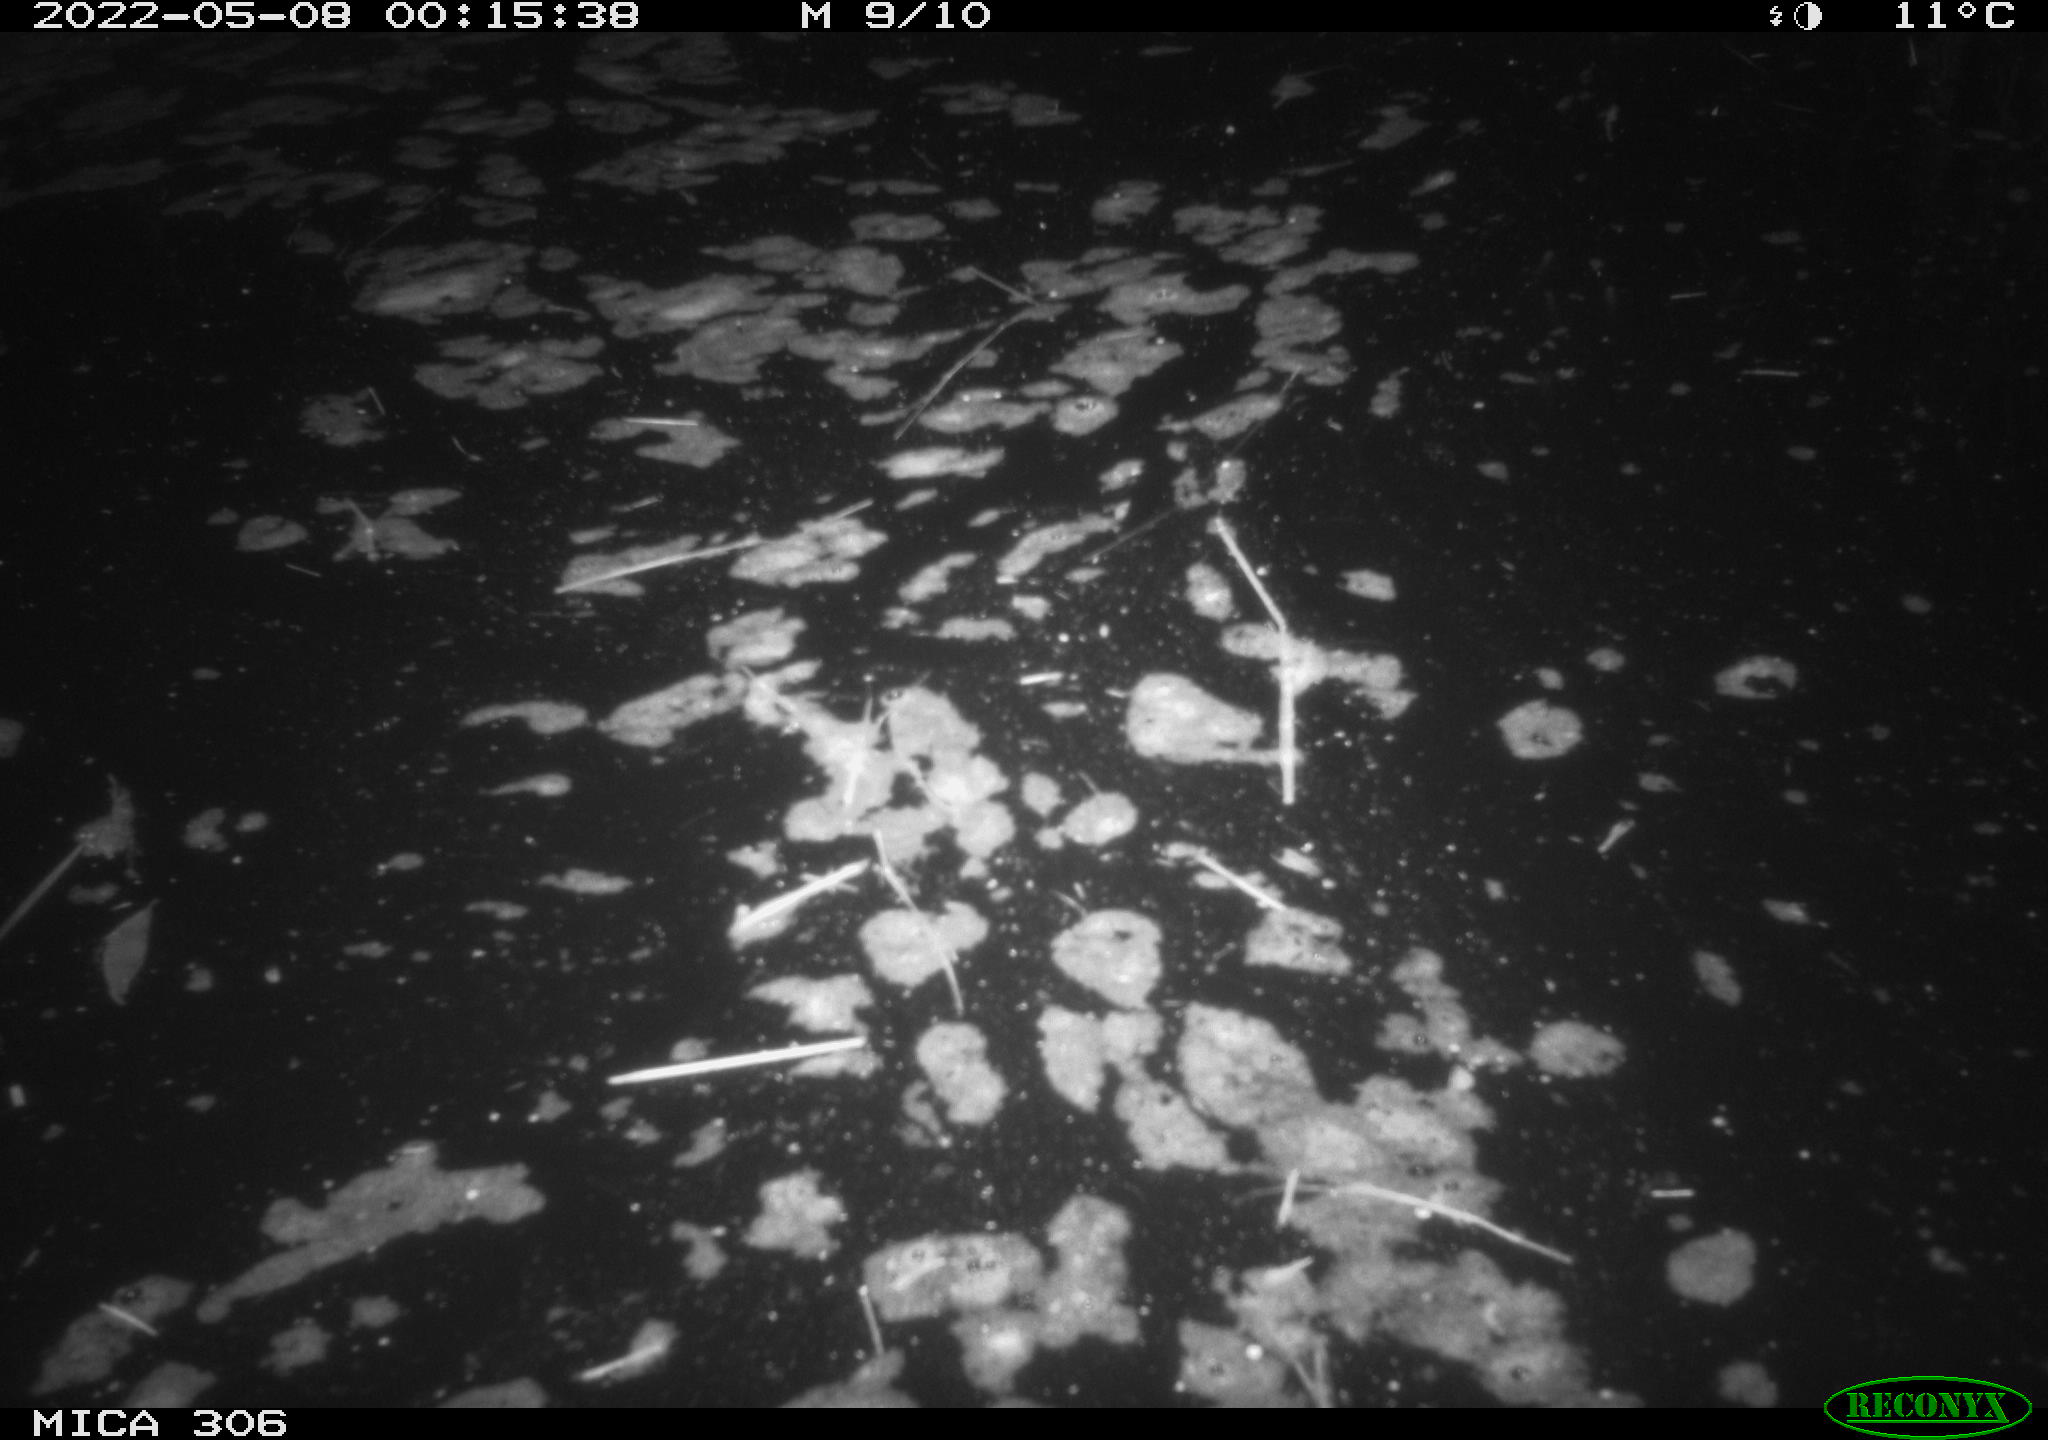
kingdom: Animalia
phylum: Chordata
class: Mammalia
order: Rodentia
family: Cricetidae
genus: Ondatra
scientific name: Ondatra zibethicus
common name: Muskrat
